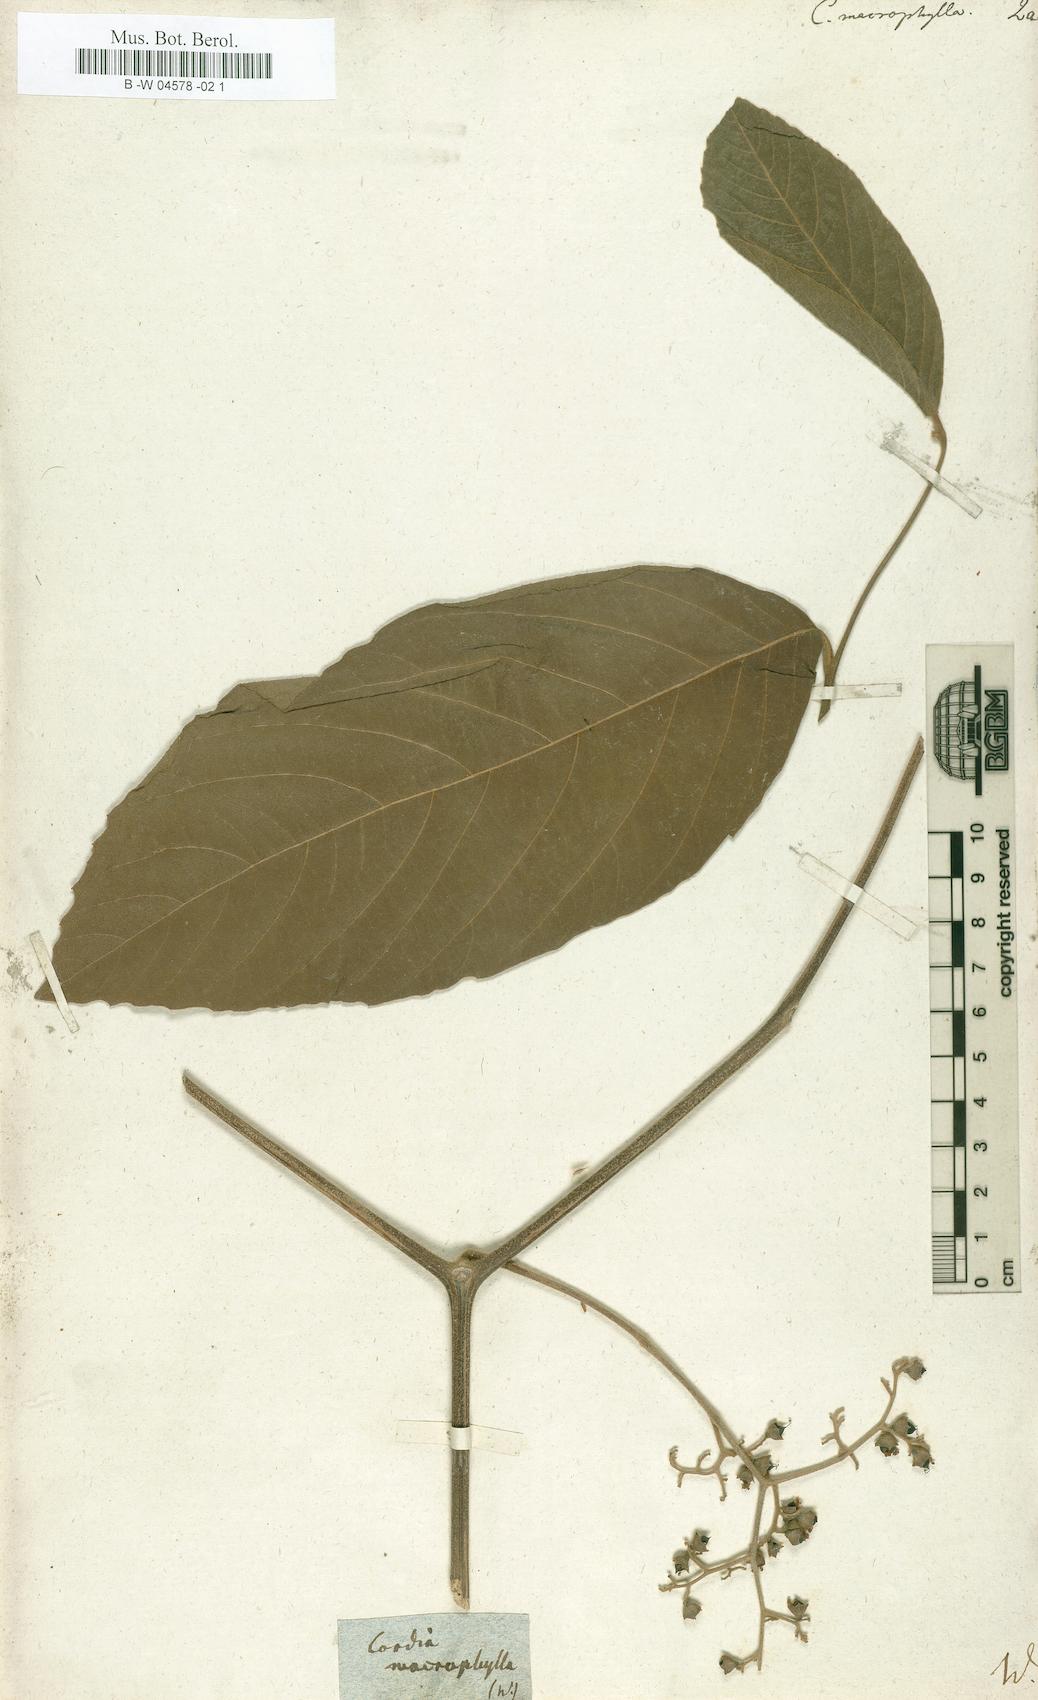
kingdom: Plantae
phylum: Tracheophyta
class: Magnoliopsida
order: Boraginales
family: Cordiaceae
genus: Cordia
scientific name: Cordia macrophylla
